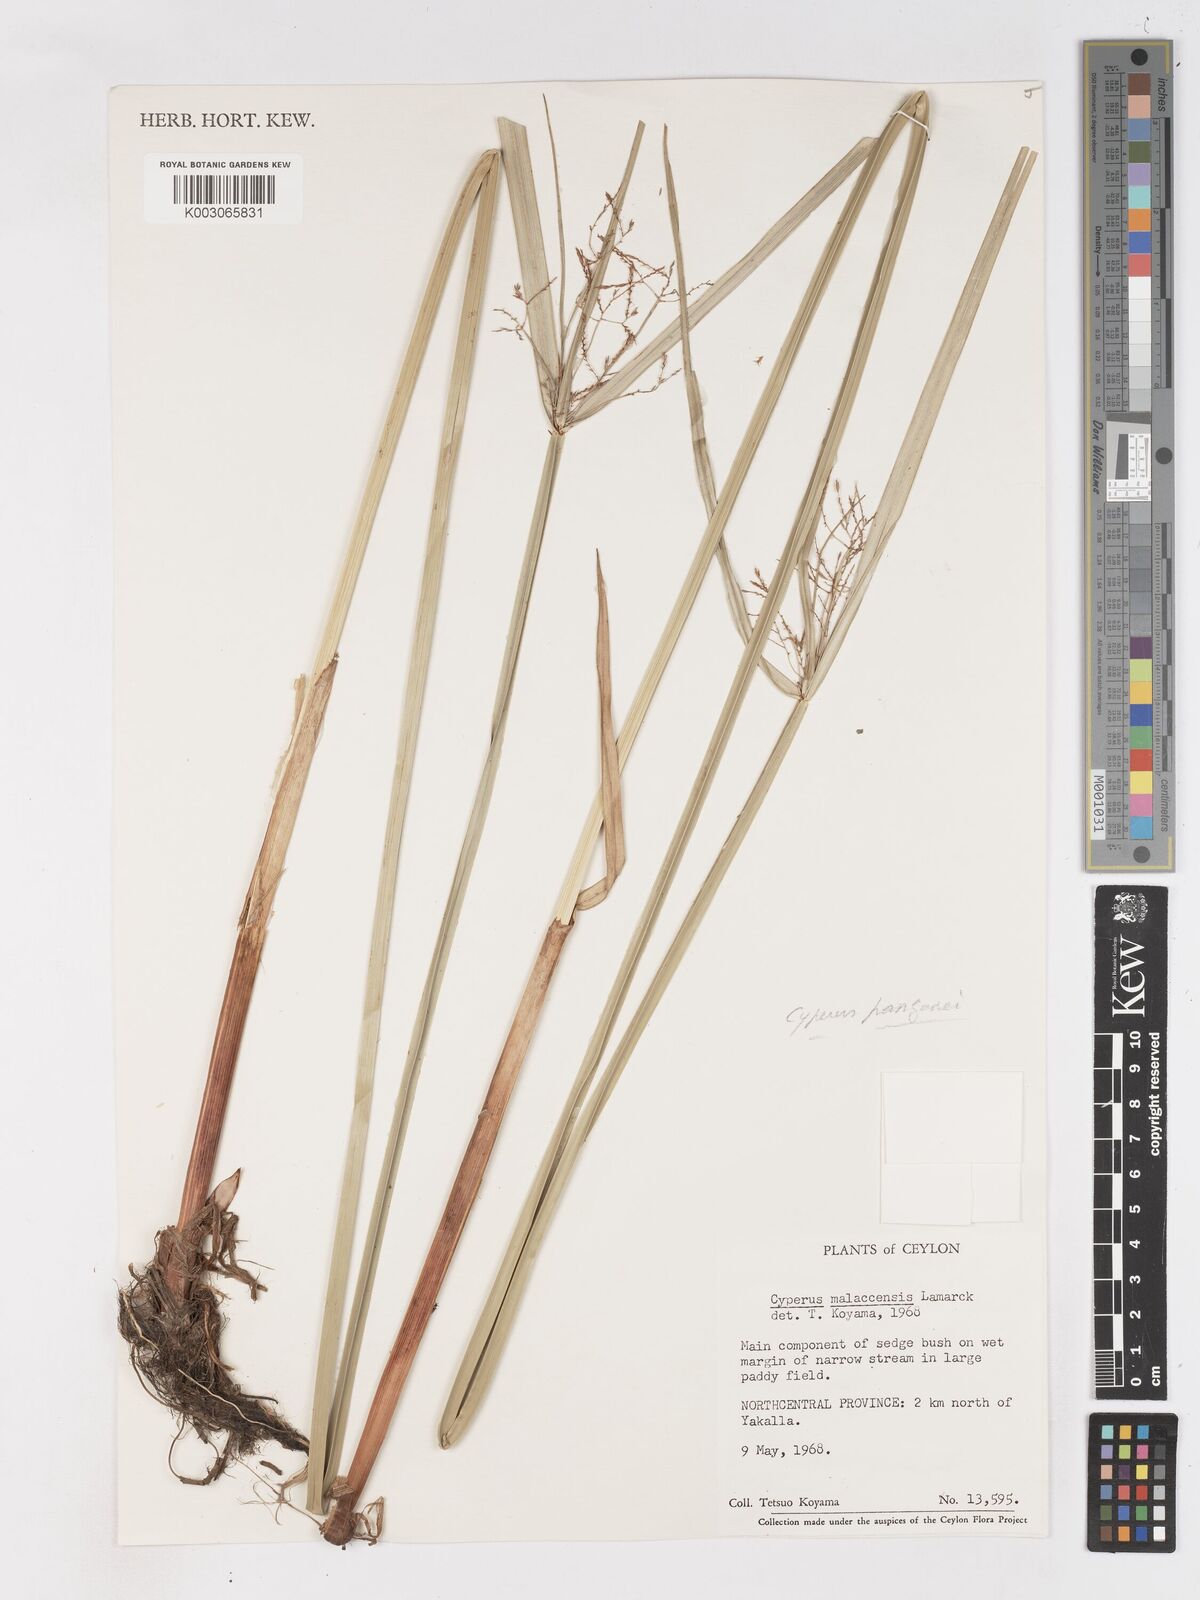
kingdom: Plantae
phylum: Tracheophyta
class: Liliopsida
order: Poales
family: Cyperaceae
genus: Cyperus
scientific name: Cyperus malaccensis
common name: Shichito matgrass
